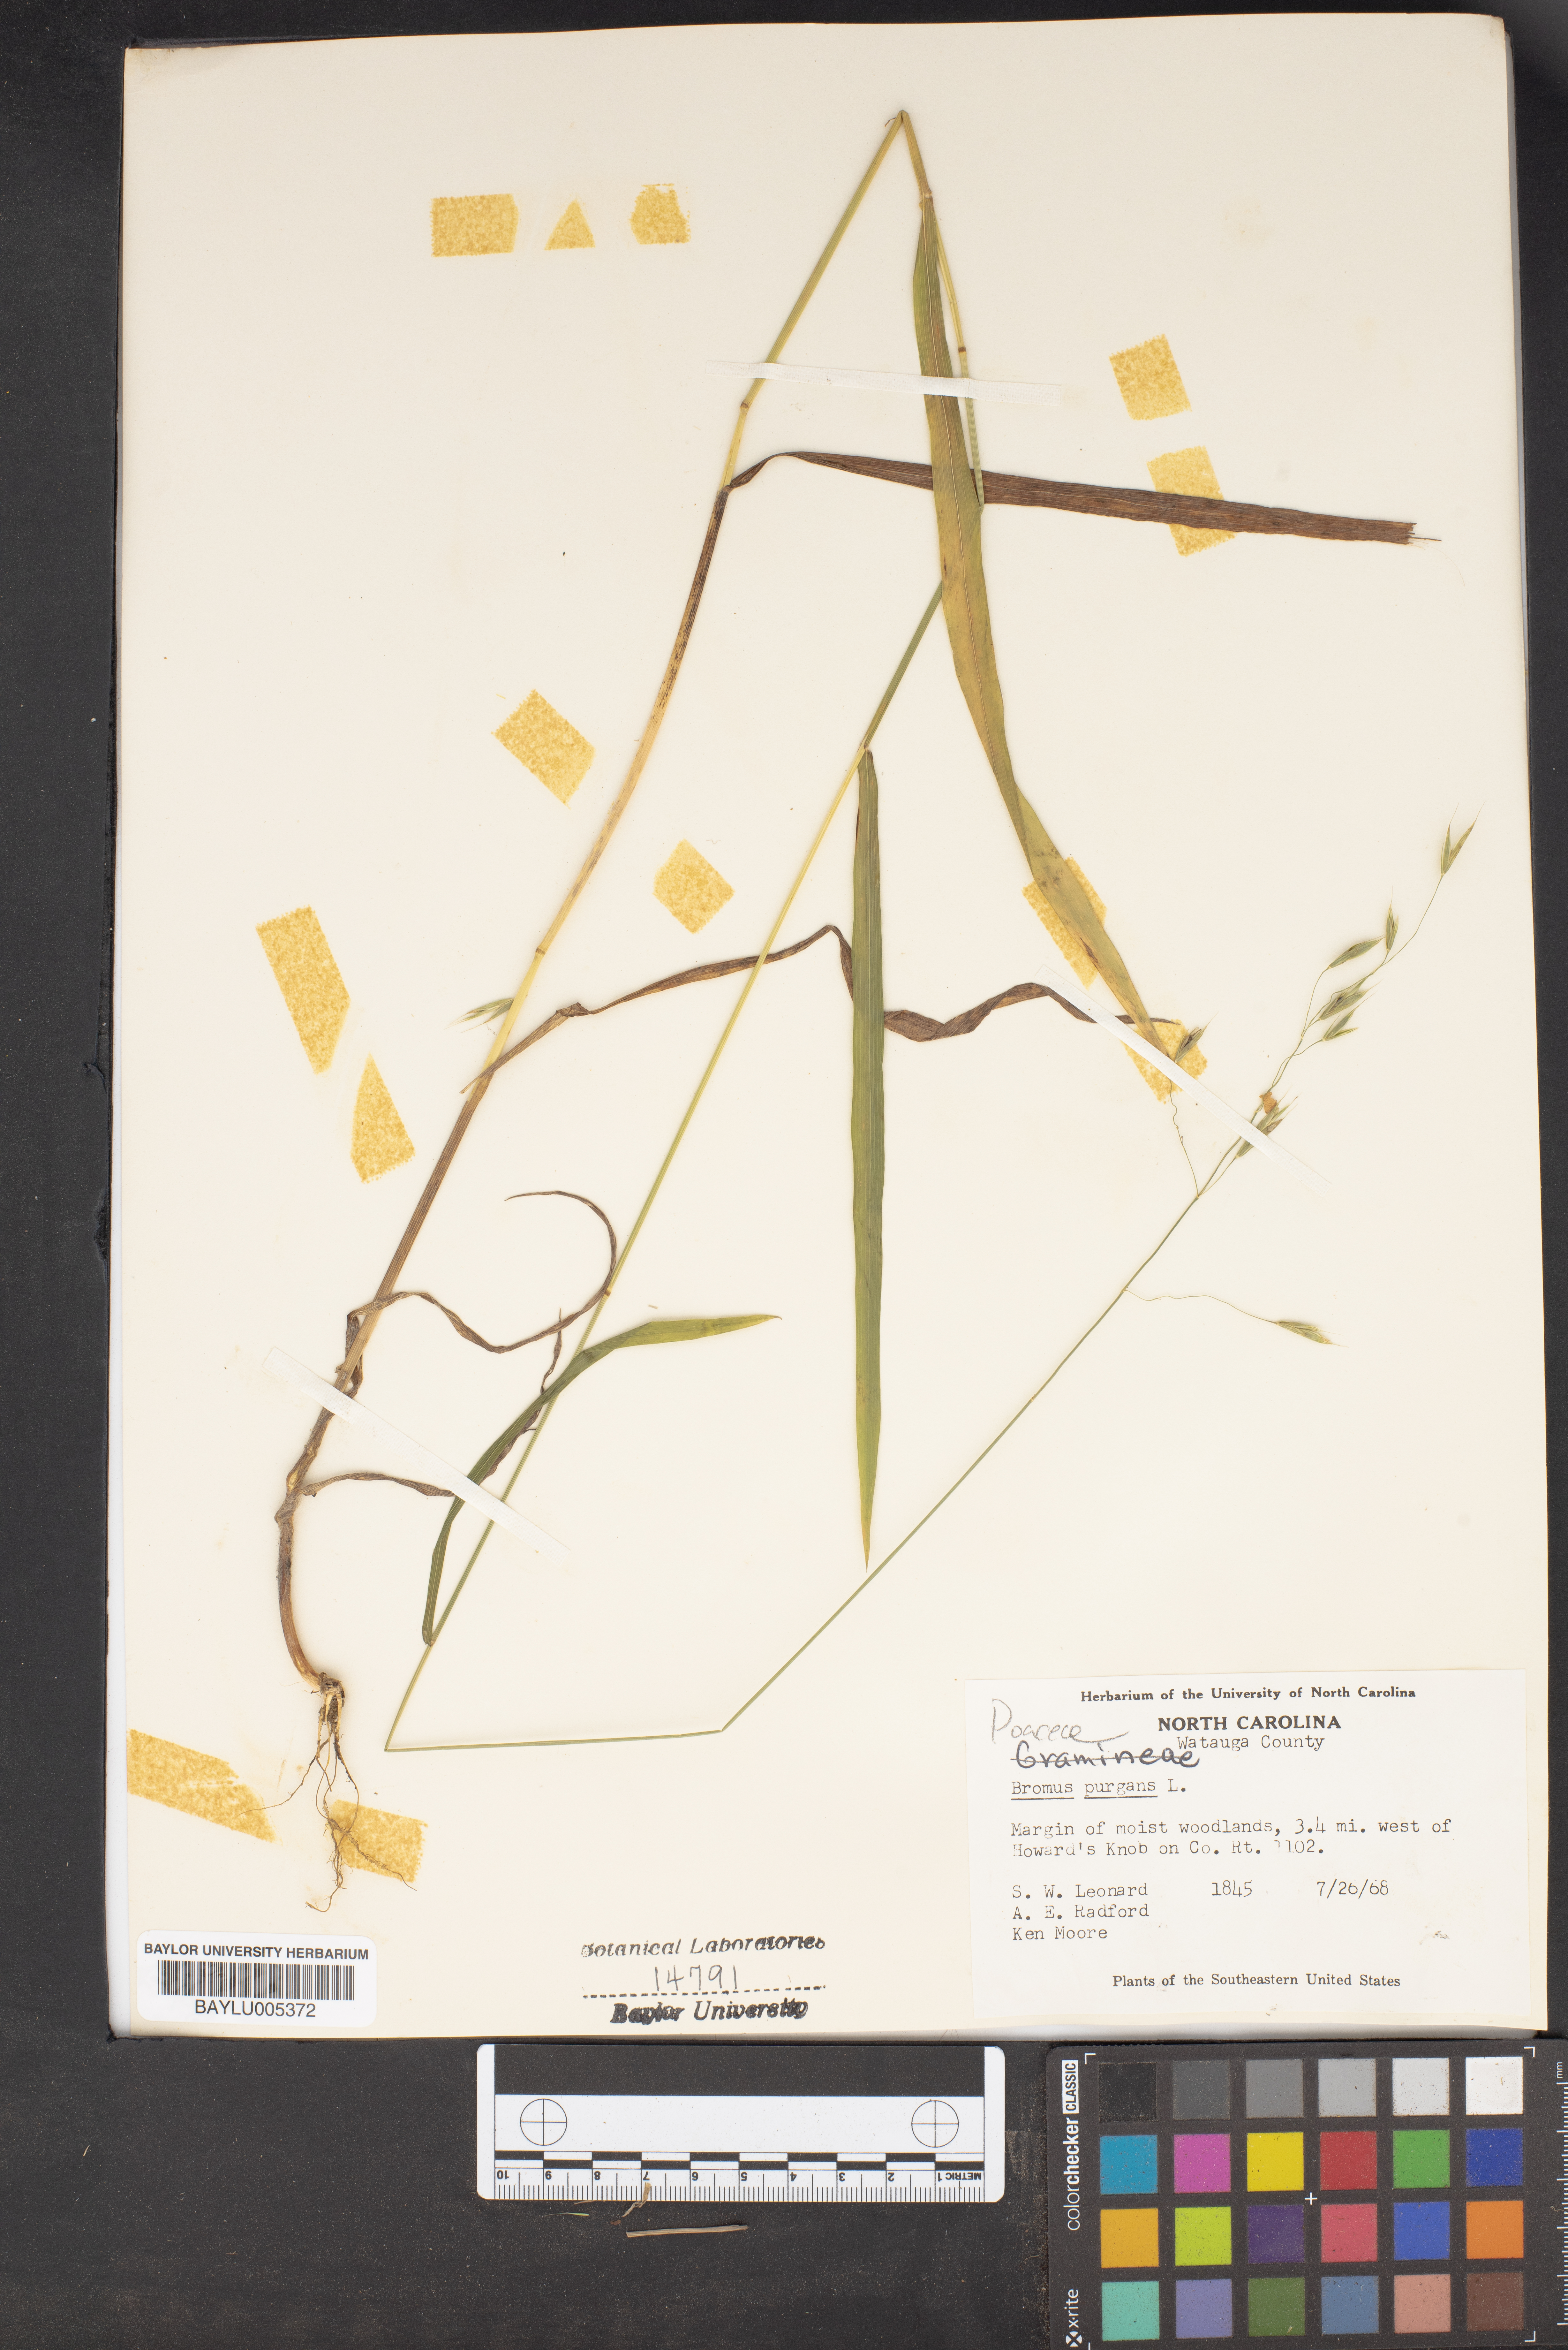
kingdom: Plantae
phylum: Tracheophyta
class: Liliopsida
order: Poales
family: Poaceae
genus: Triticum
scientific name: Triticum Bromus purgans
